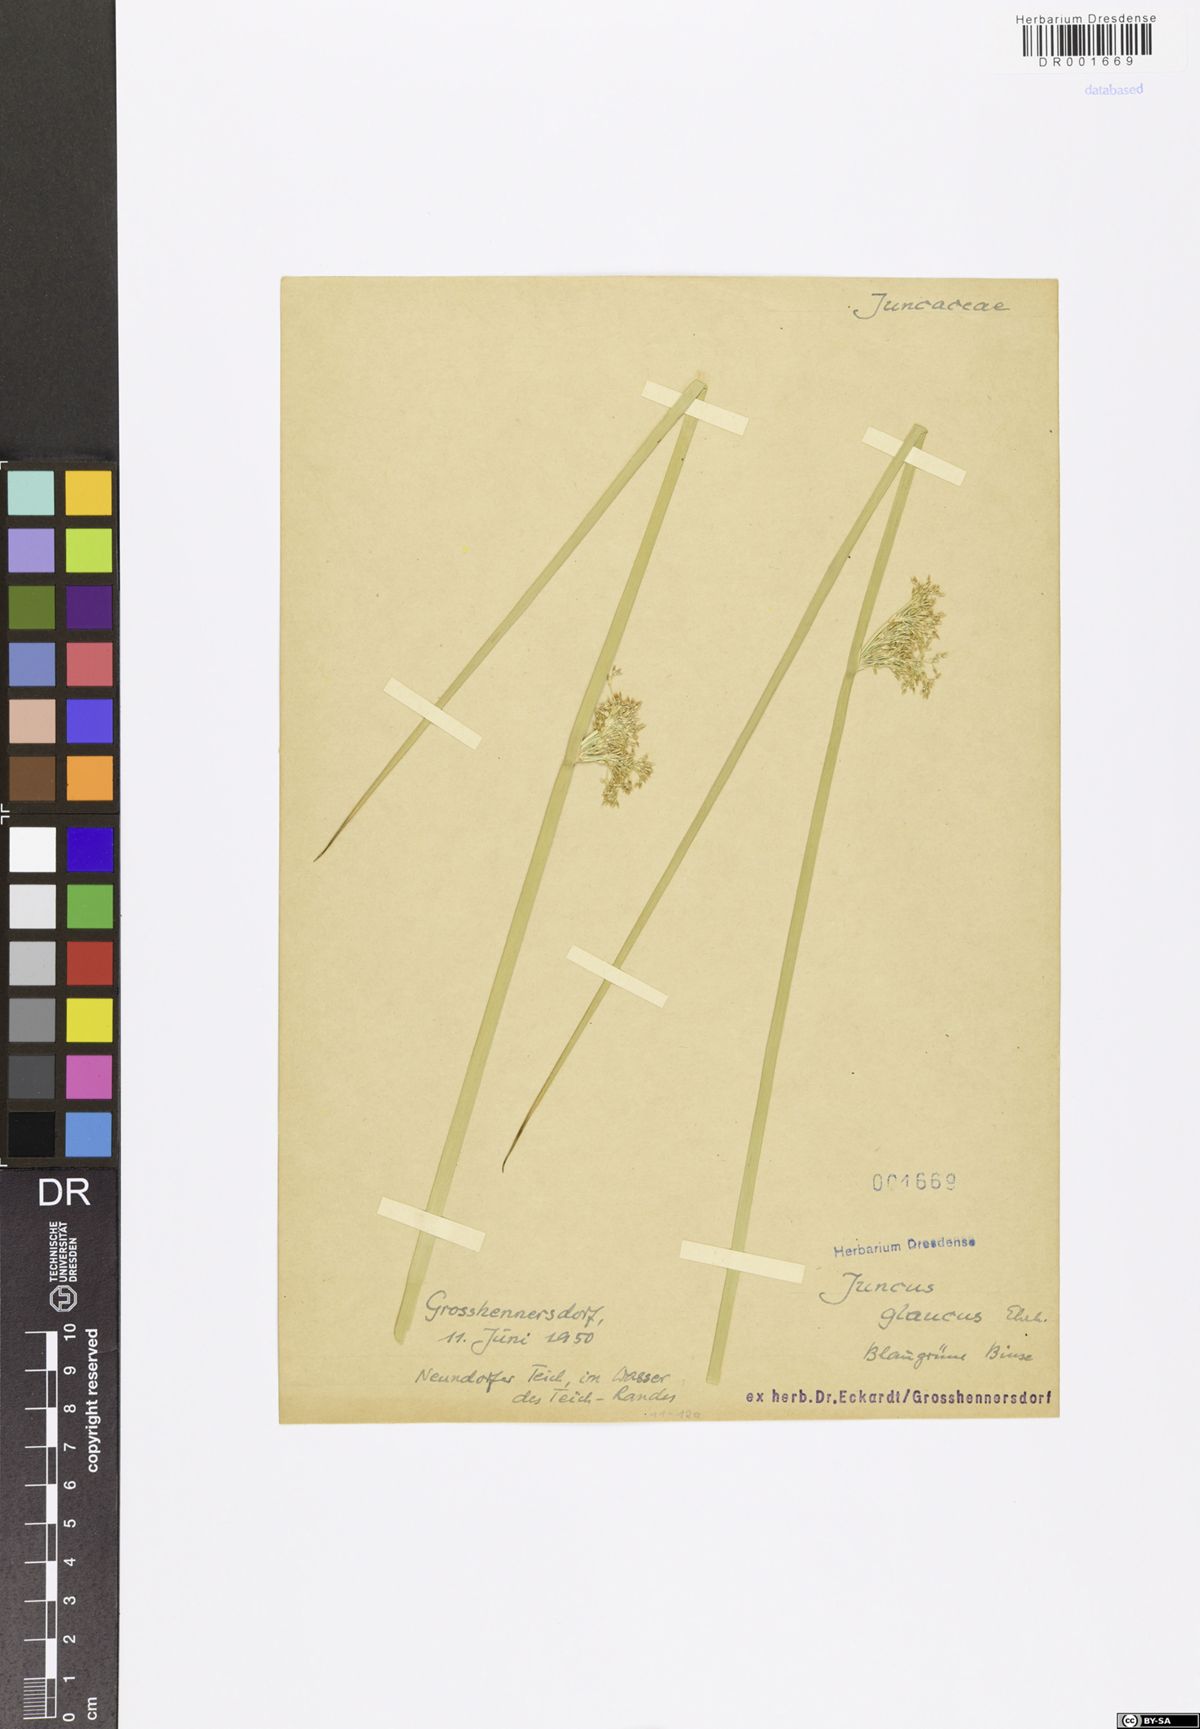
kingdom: Plantae
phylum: Tracheophyta
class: Liliopsida
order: Poales
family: Juncaceae
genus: Juncus
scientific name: Juncus inflexus
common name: Hard rush
